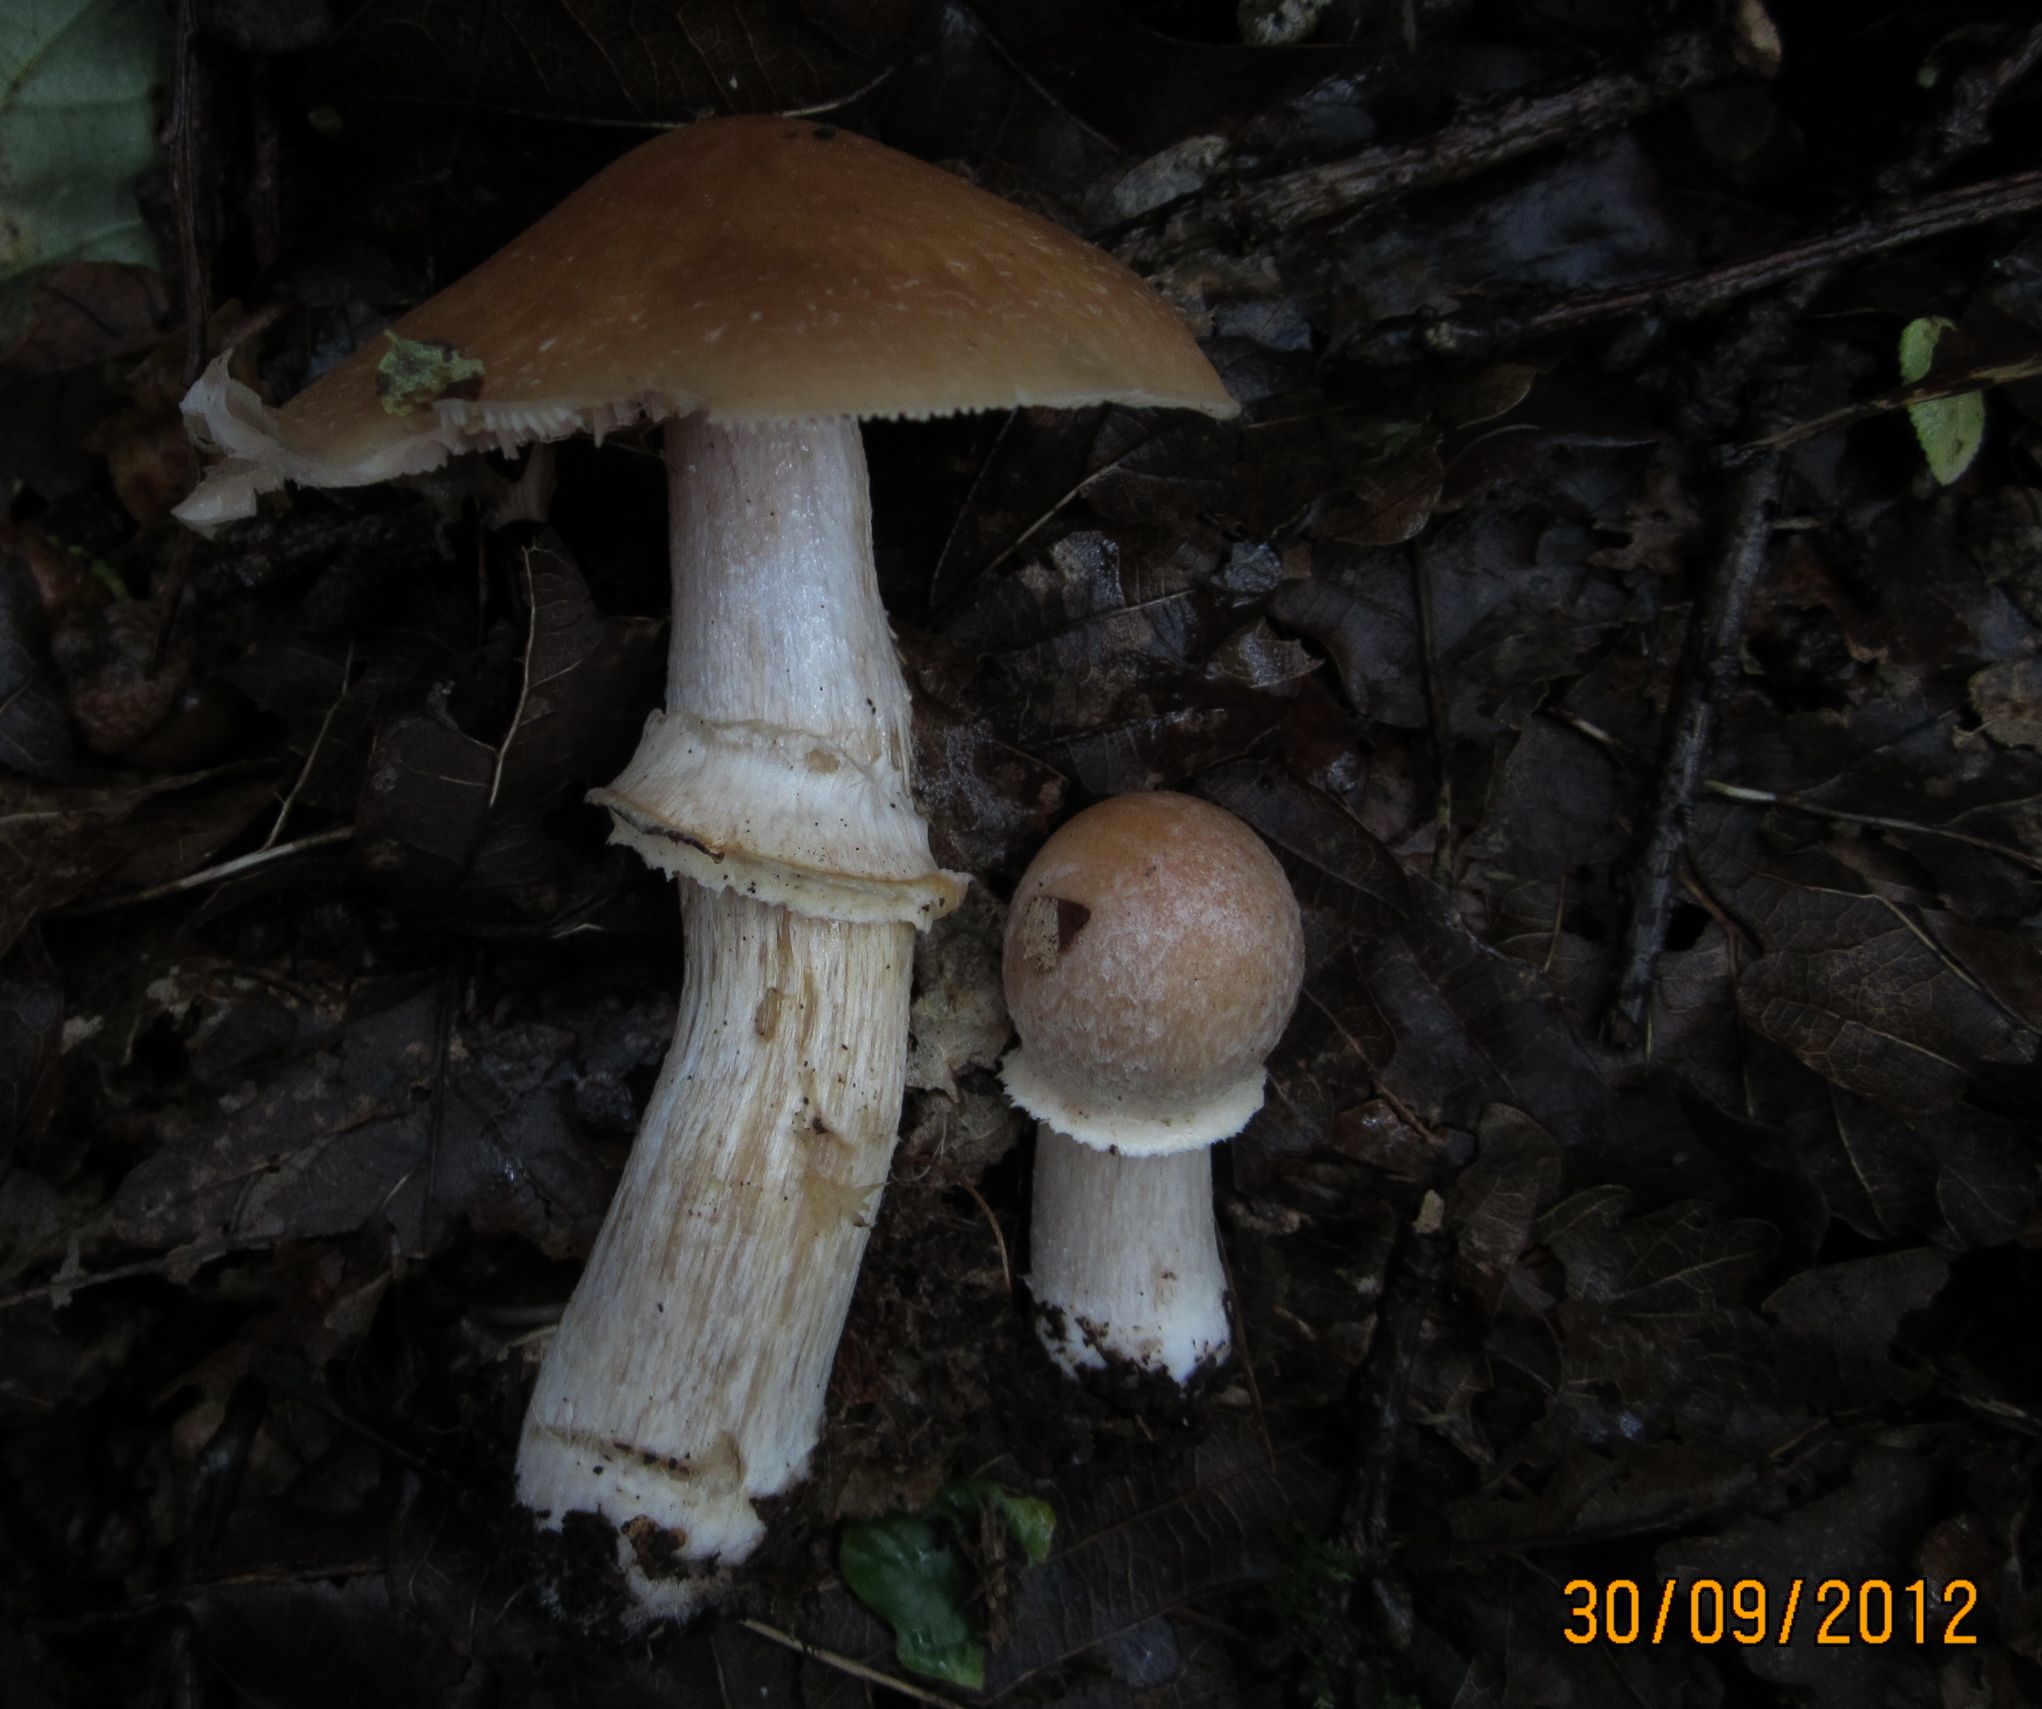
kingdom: Fungi
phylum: Basidiomycota
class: Agaricomycetes
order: Agaricales
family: Cortinariaceae
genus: Cortinarius
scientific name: Cortinarius caperatus
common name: klidhat
